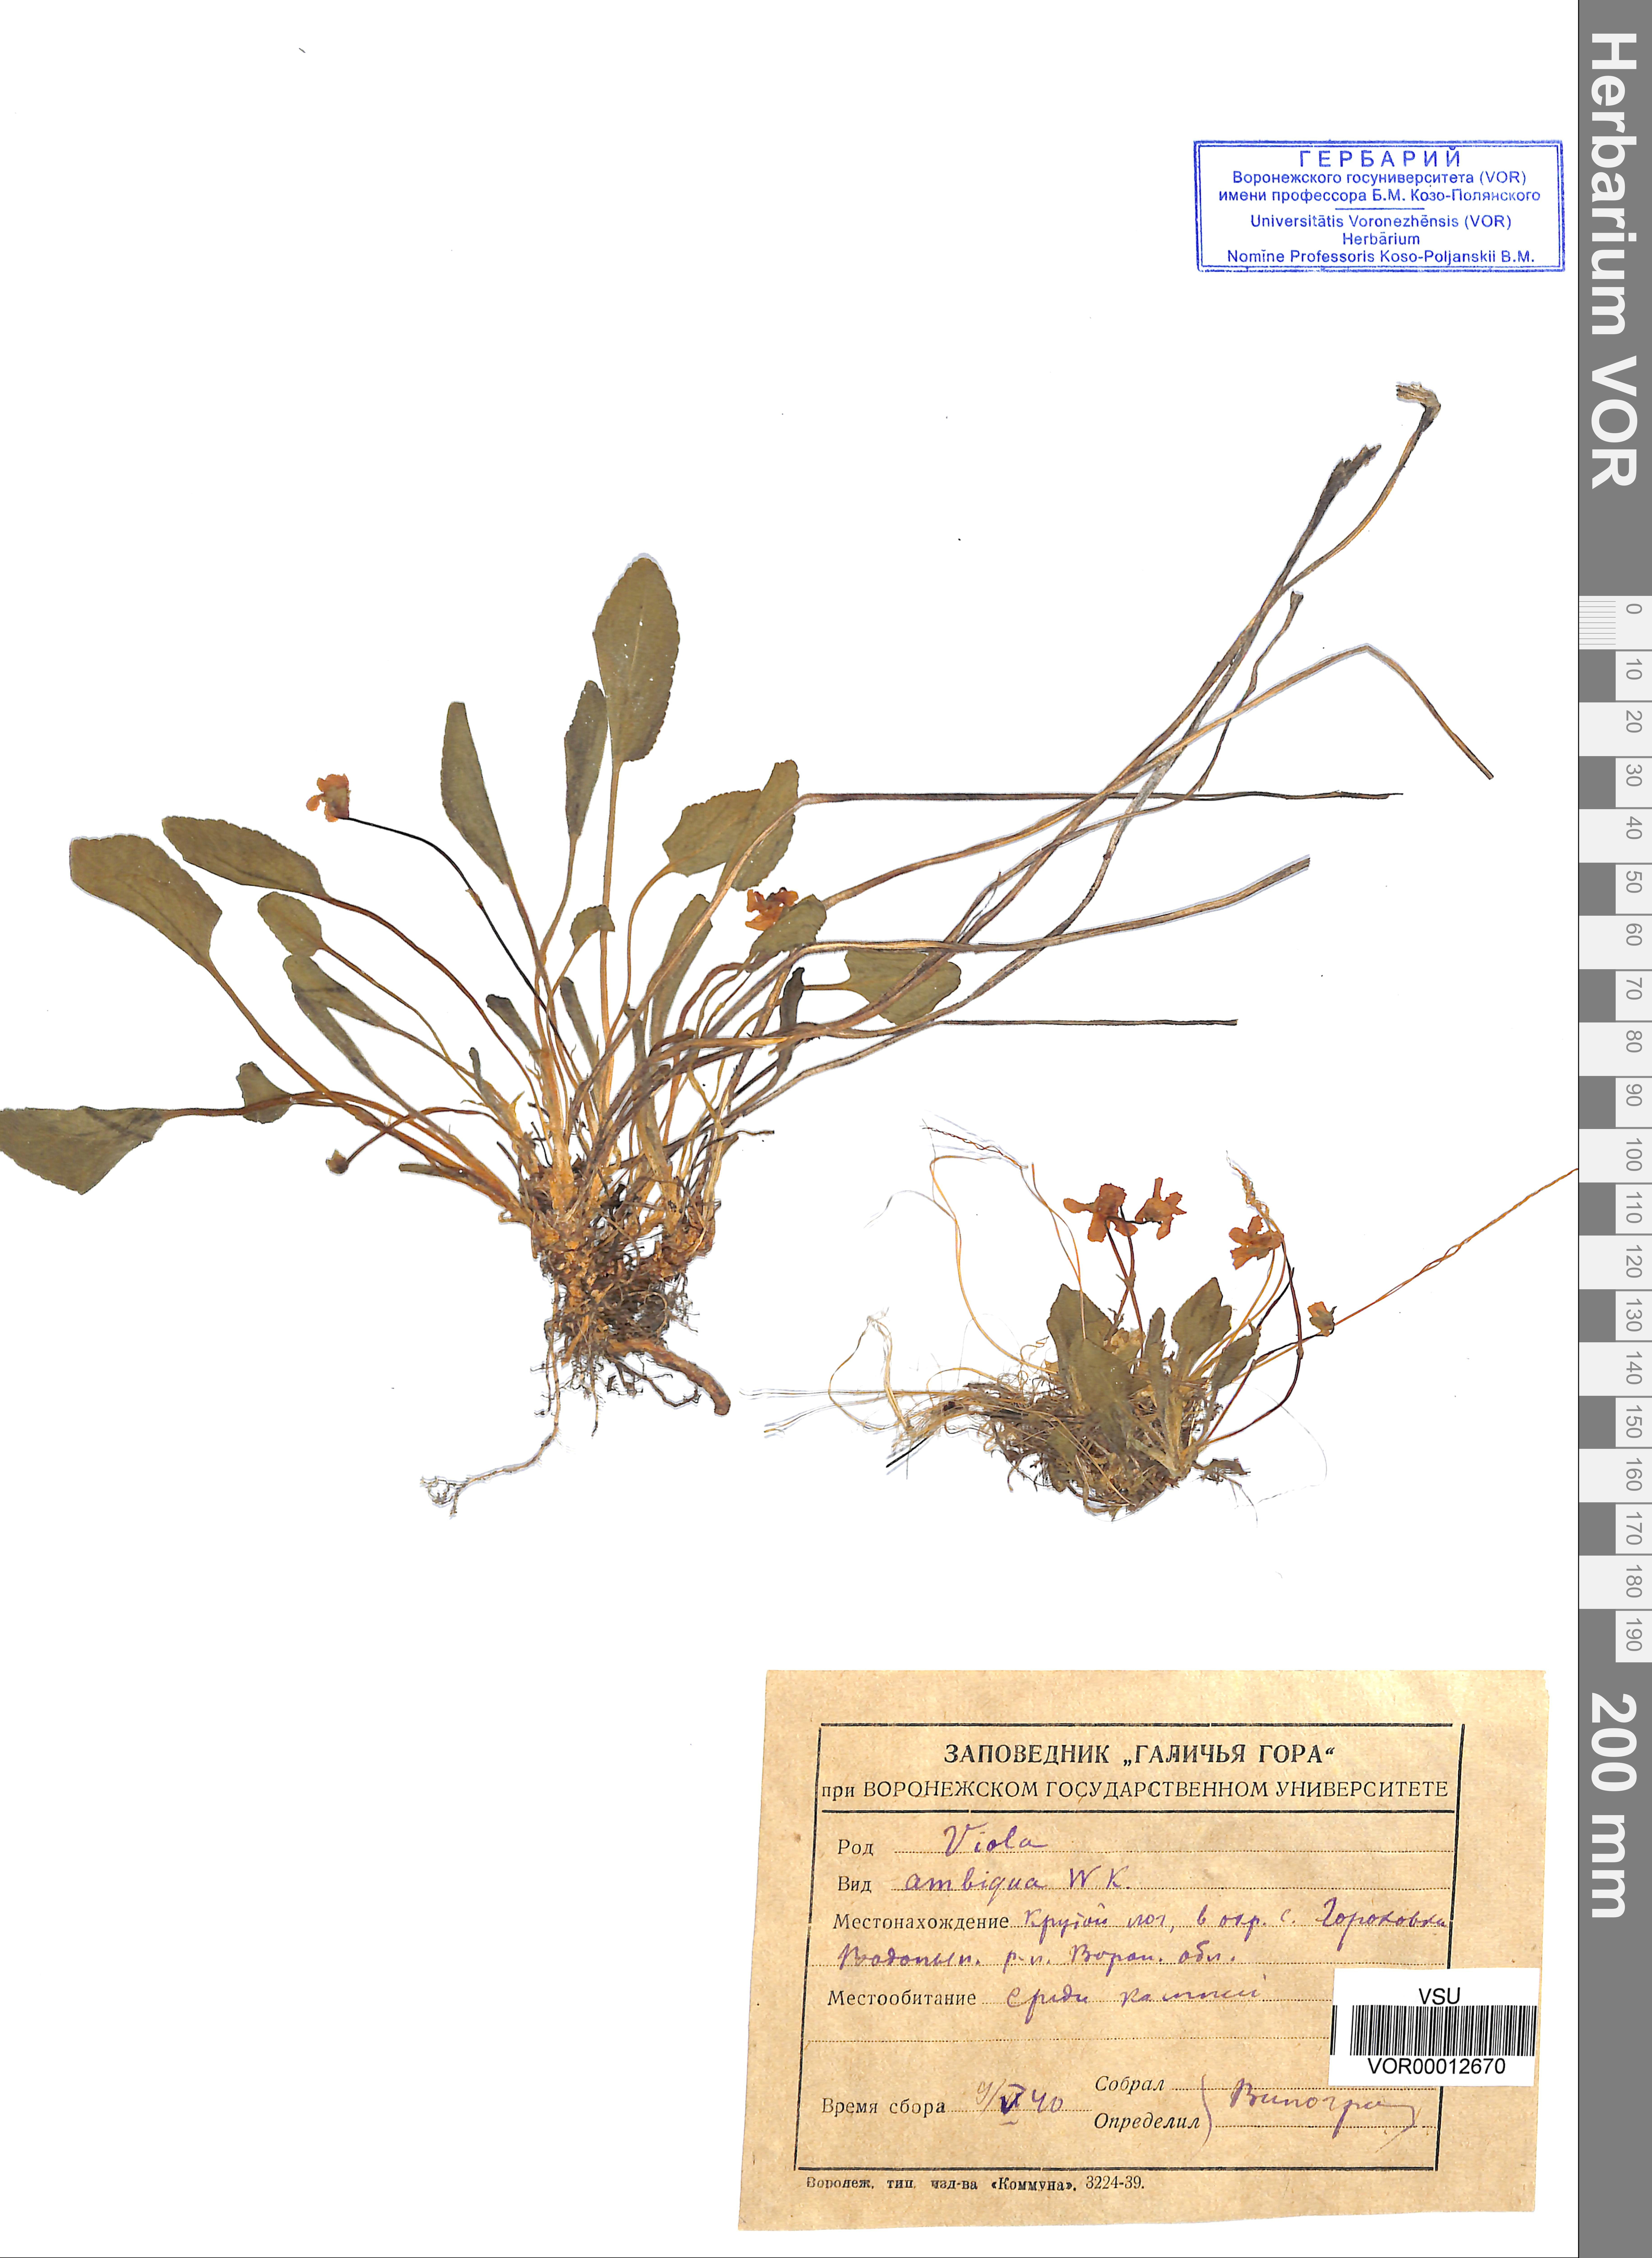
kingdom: Plantae
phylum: Tracheophyta
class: Magnoliopsida
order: Malpighiales
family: Violaceae
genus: Viola
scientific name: Viola ambigua
